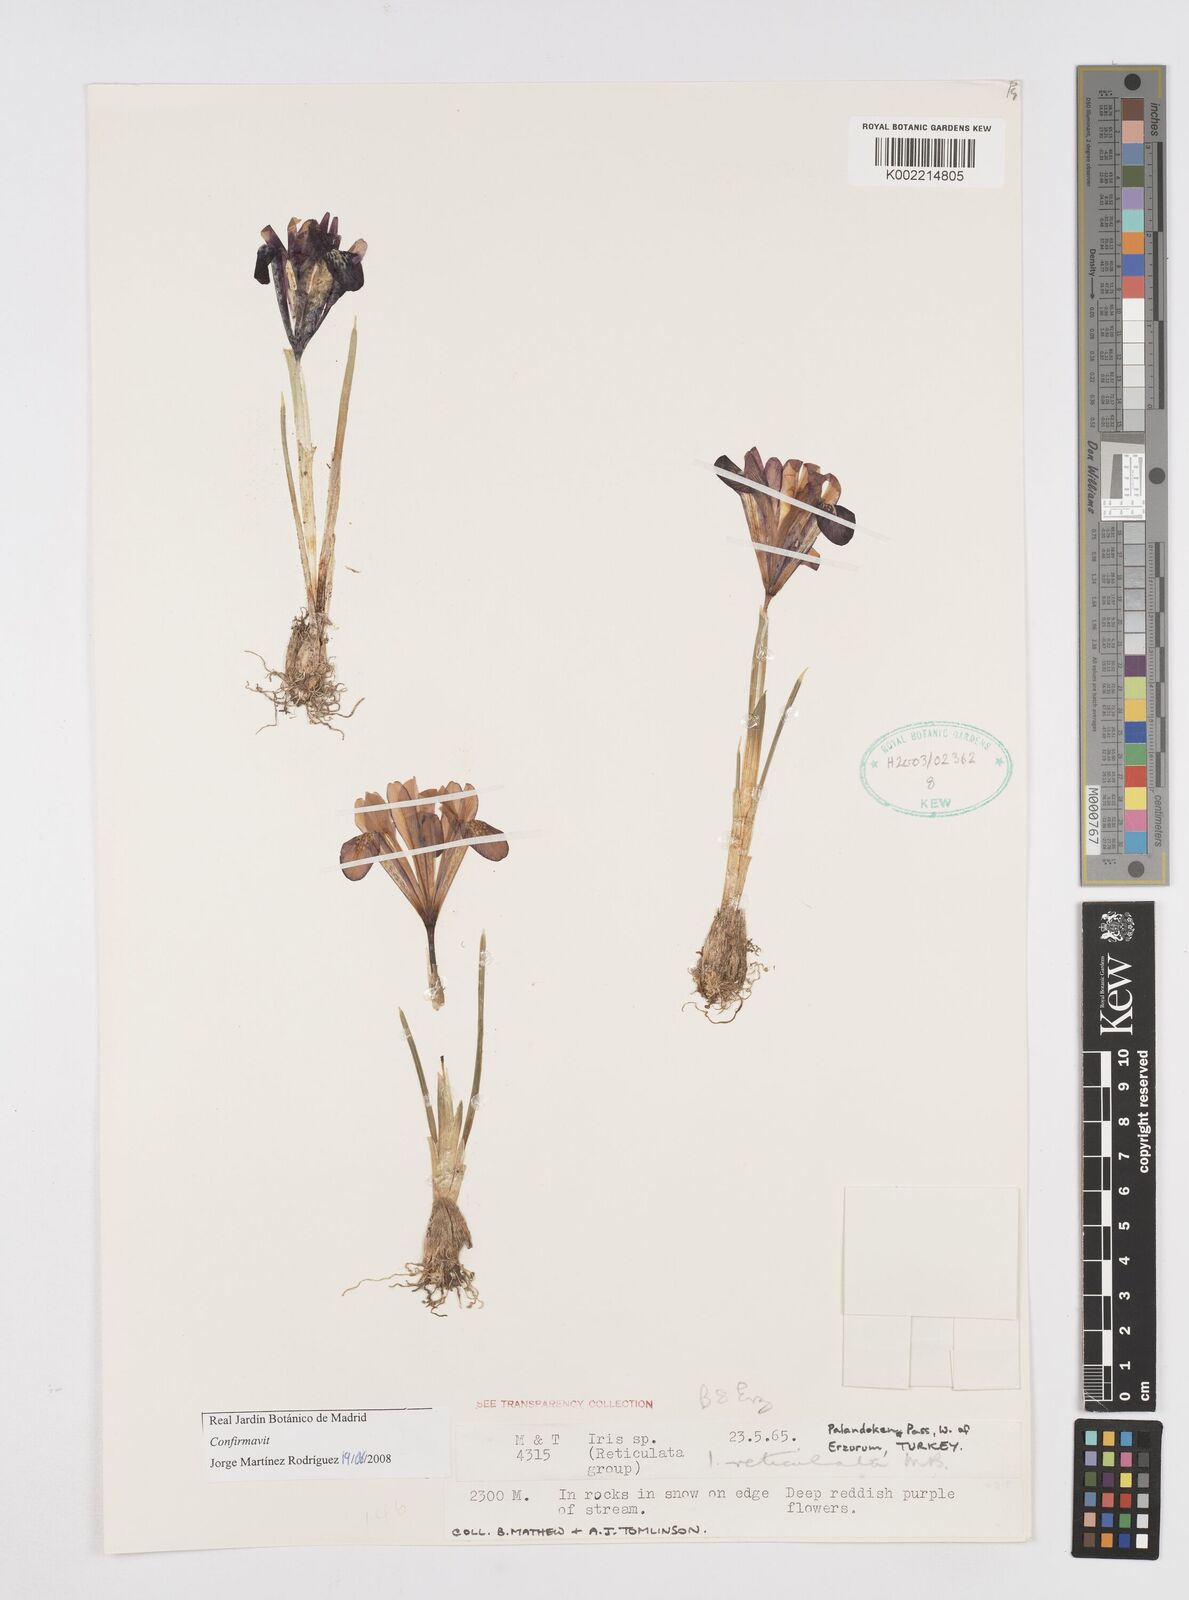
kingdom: Plantae
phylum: Tracheophyta
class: Liliopsida
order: Asparagales
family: Iridaceae
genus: Iris
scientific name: Iris reticulata
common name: Netted iris
